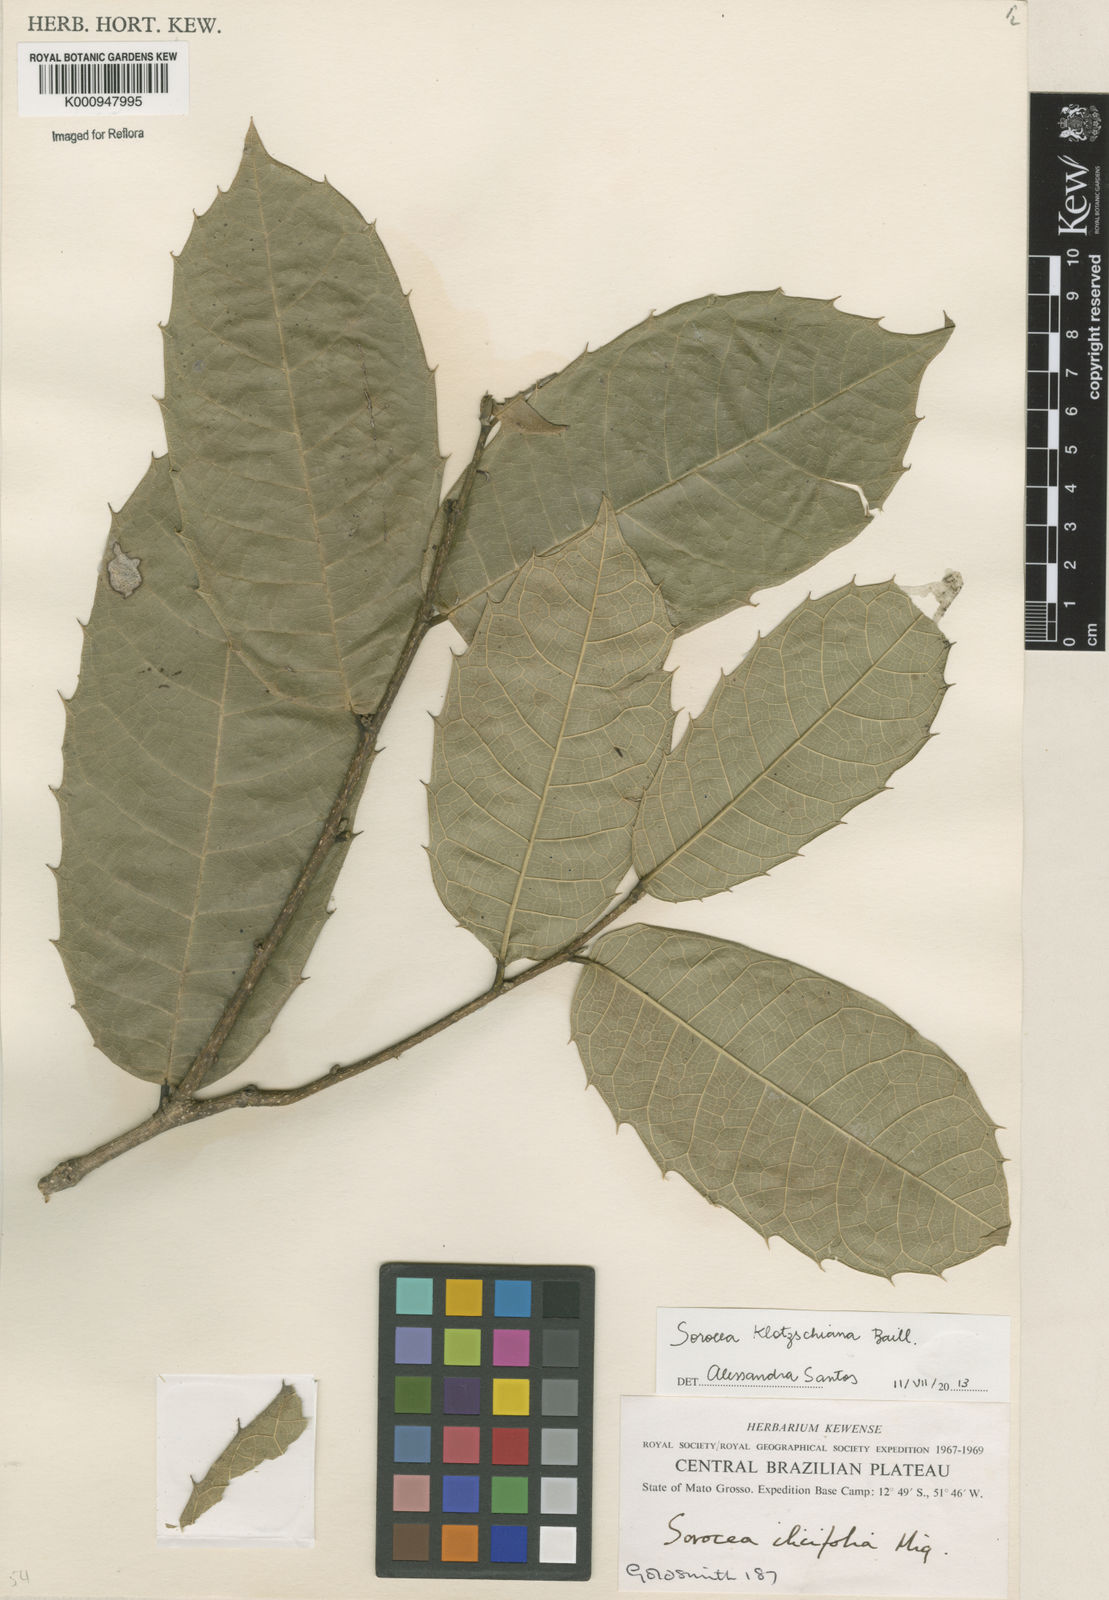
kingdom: Plantae
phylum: Tracheophyta
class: Magnoliopsida
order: Rosales
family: Moraceae
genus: Sorocea
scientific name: Sorocea guilleminiana
